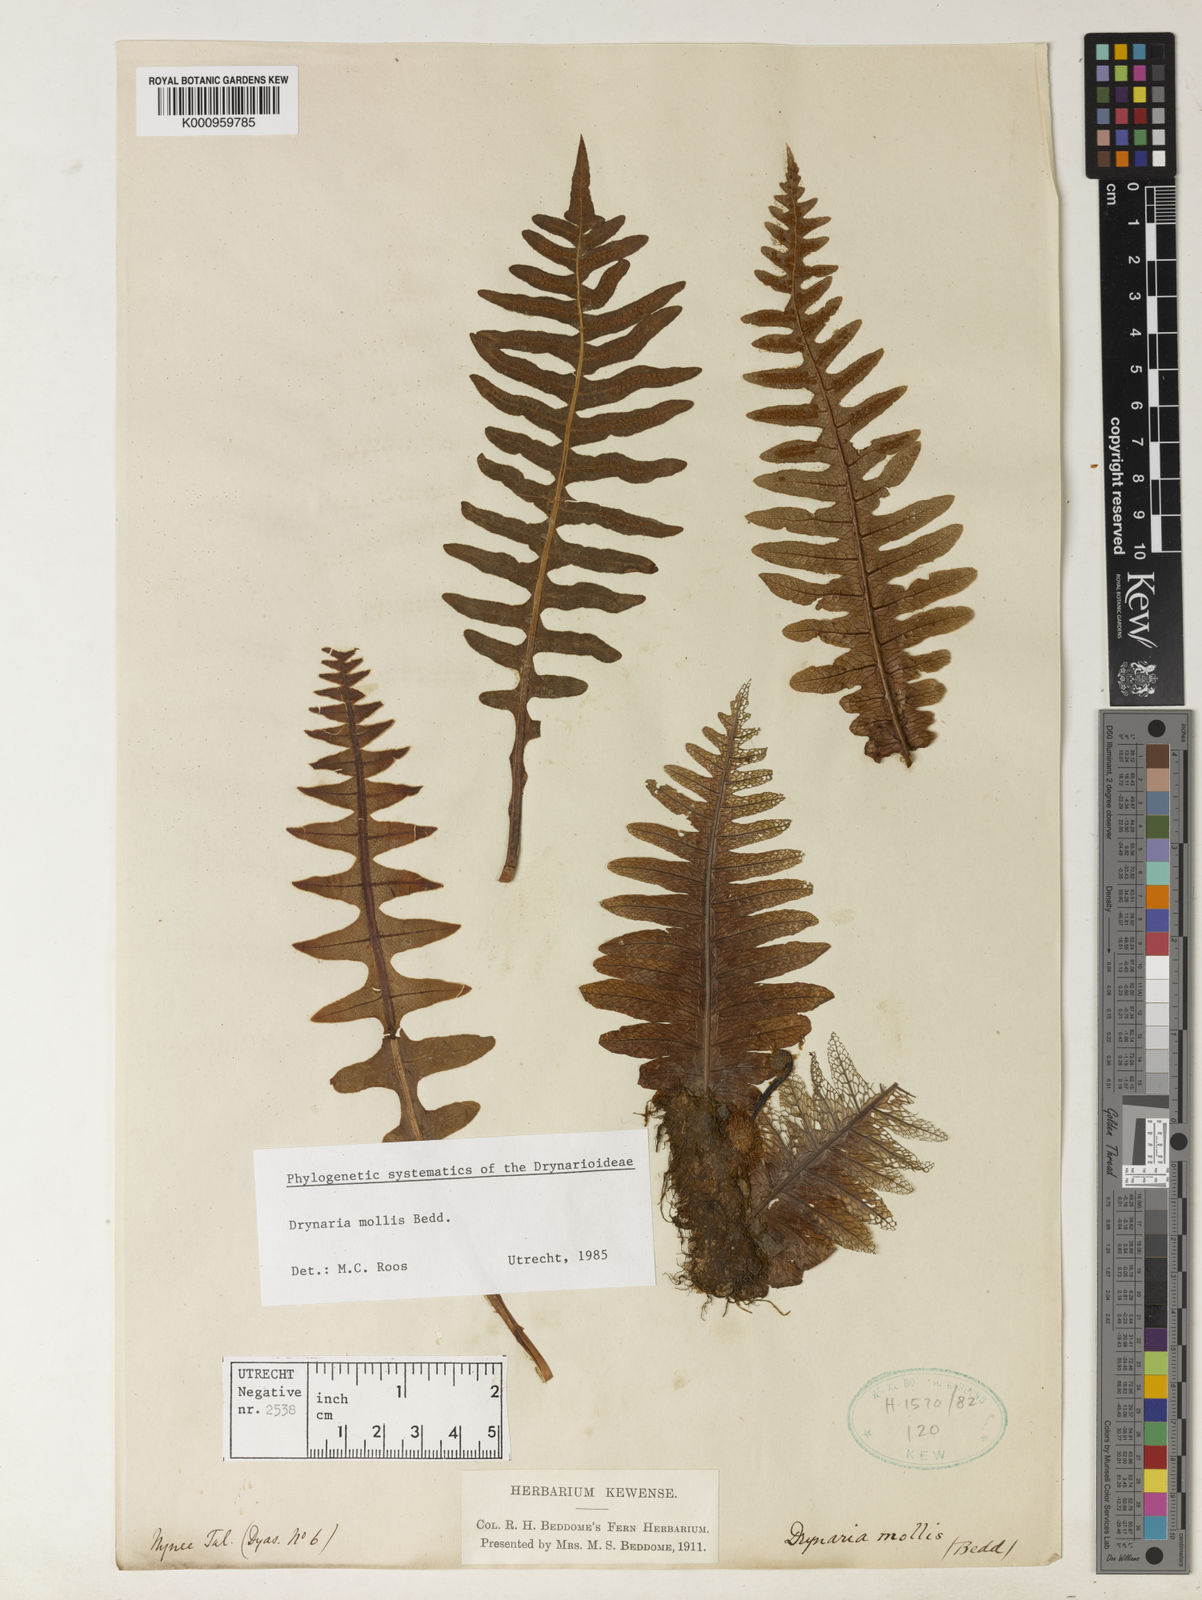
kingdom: Plantae
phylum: Tracheophyta
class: Polypodiopsida
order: Polypodiales
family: Polypodiaceae
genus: Drynaria
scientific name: Drynaria mollis
